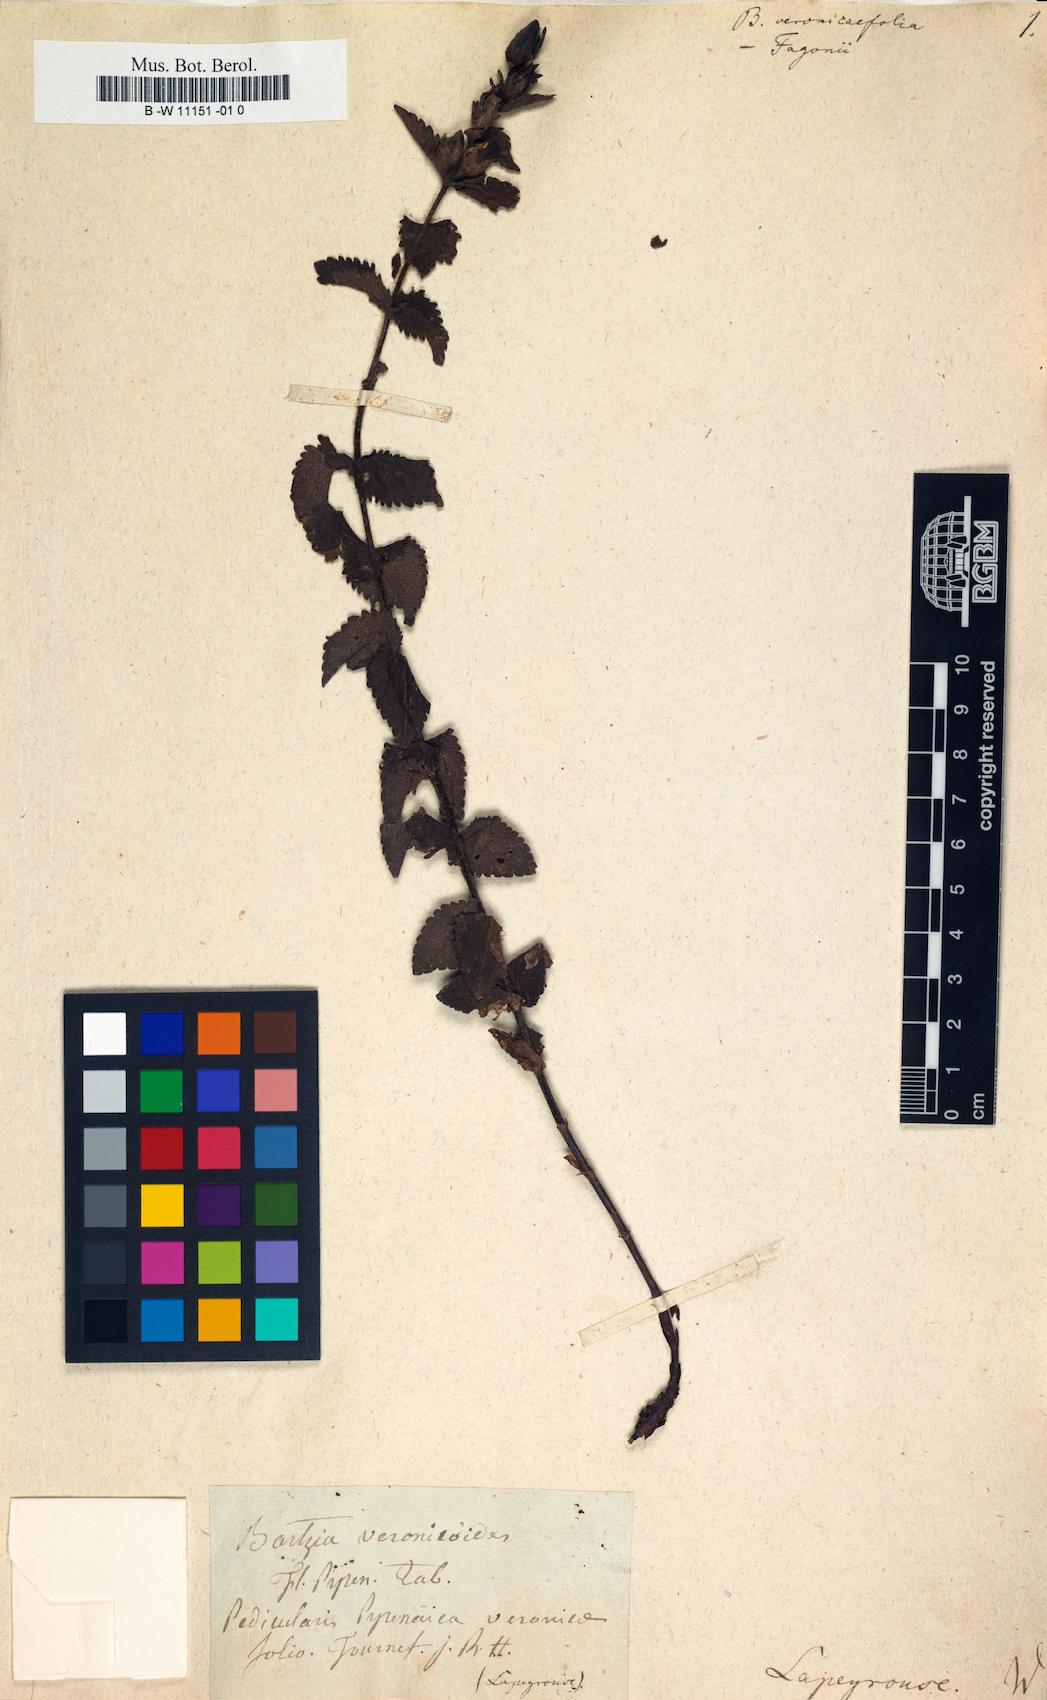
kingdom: Plantae
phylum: Tracheophyta
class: Magnoliopsida
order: Lamiales
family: Scrophulariaceae
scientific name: Scrophulariaceae
